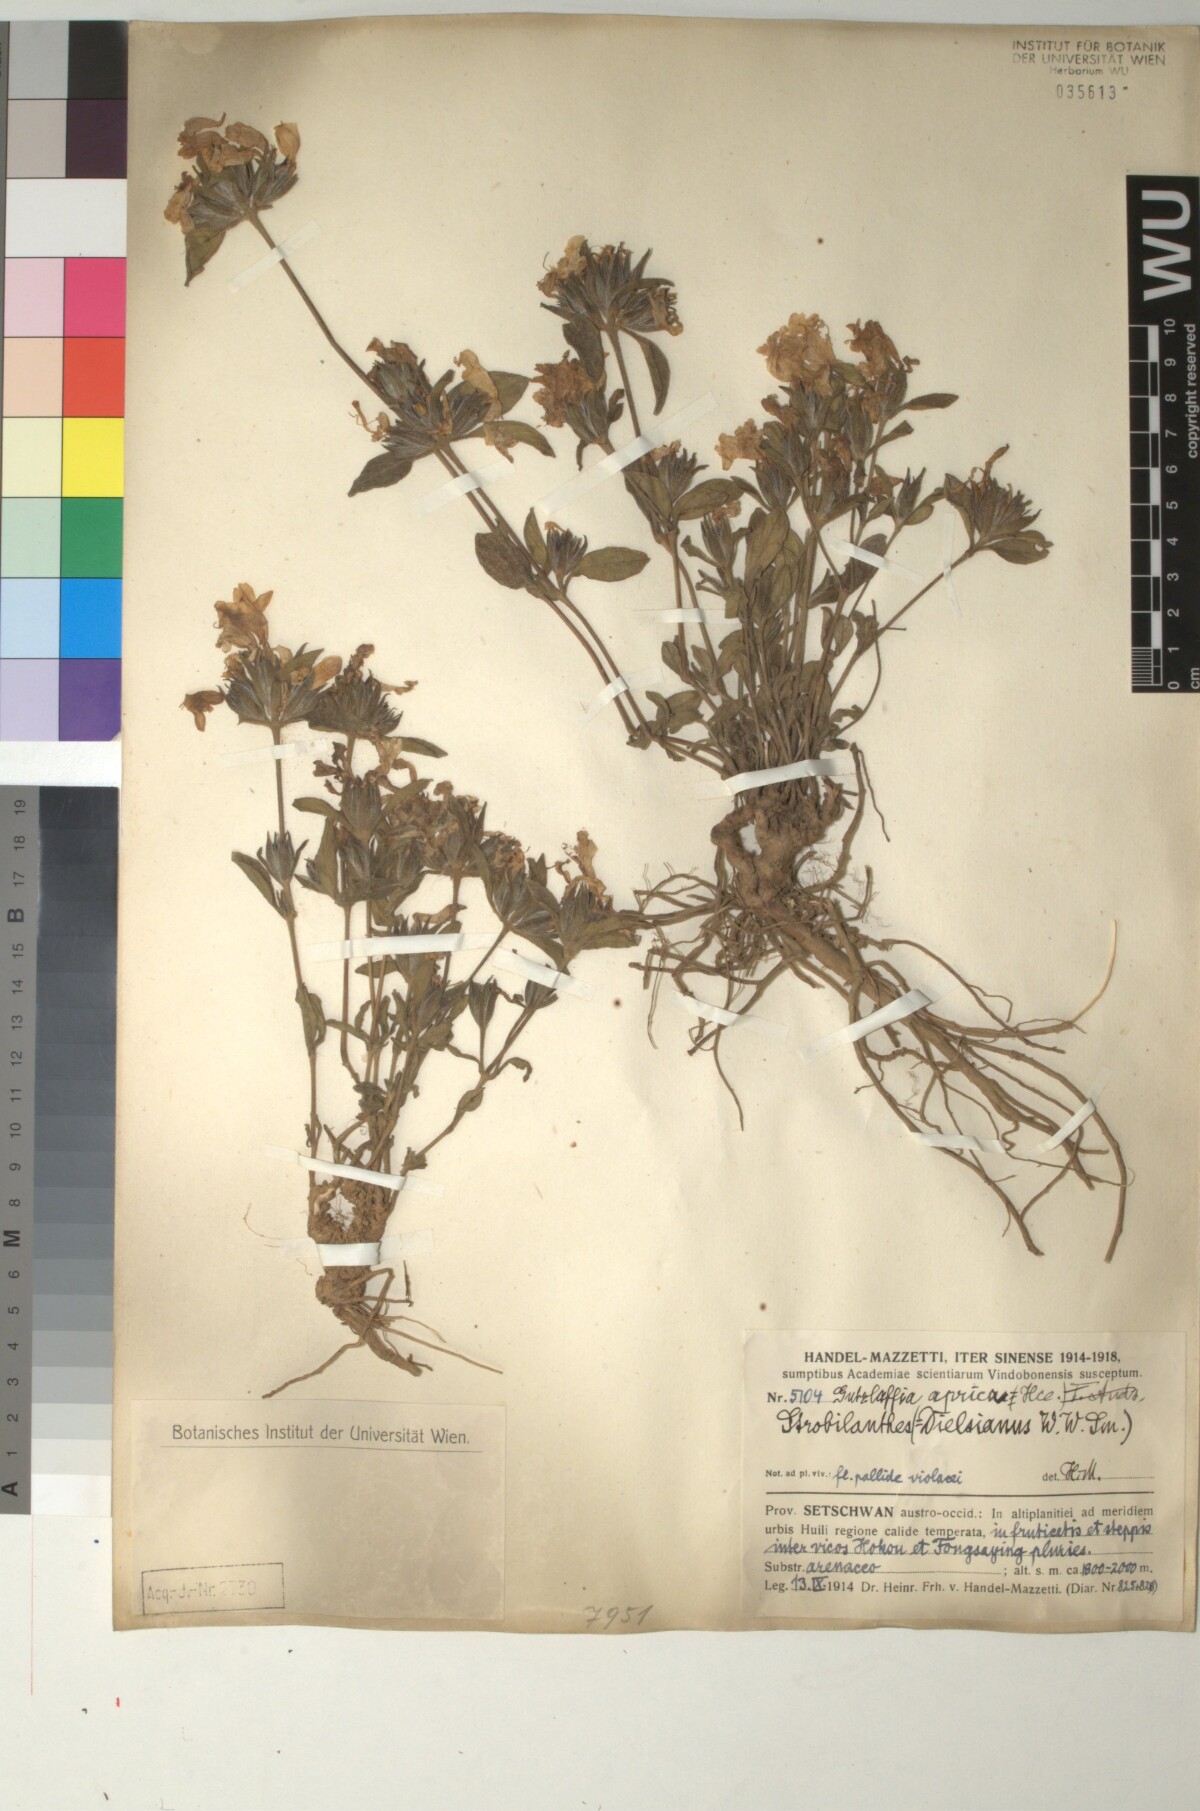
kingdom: Plantae
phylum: Tracheophyta
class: Magnoliopsida
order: Lamiales
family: Acanthaceae
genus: Strobilanthes
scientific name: Strobilanthes aprica
